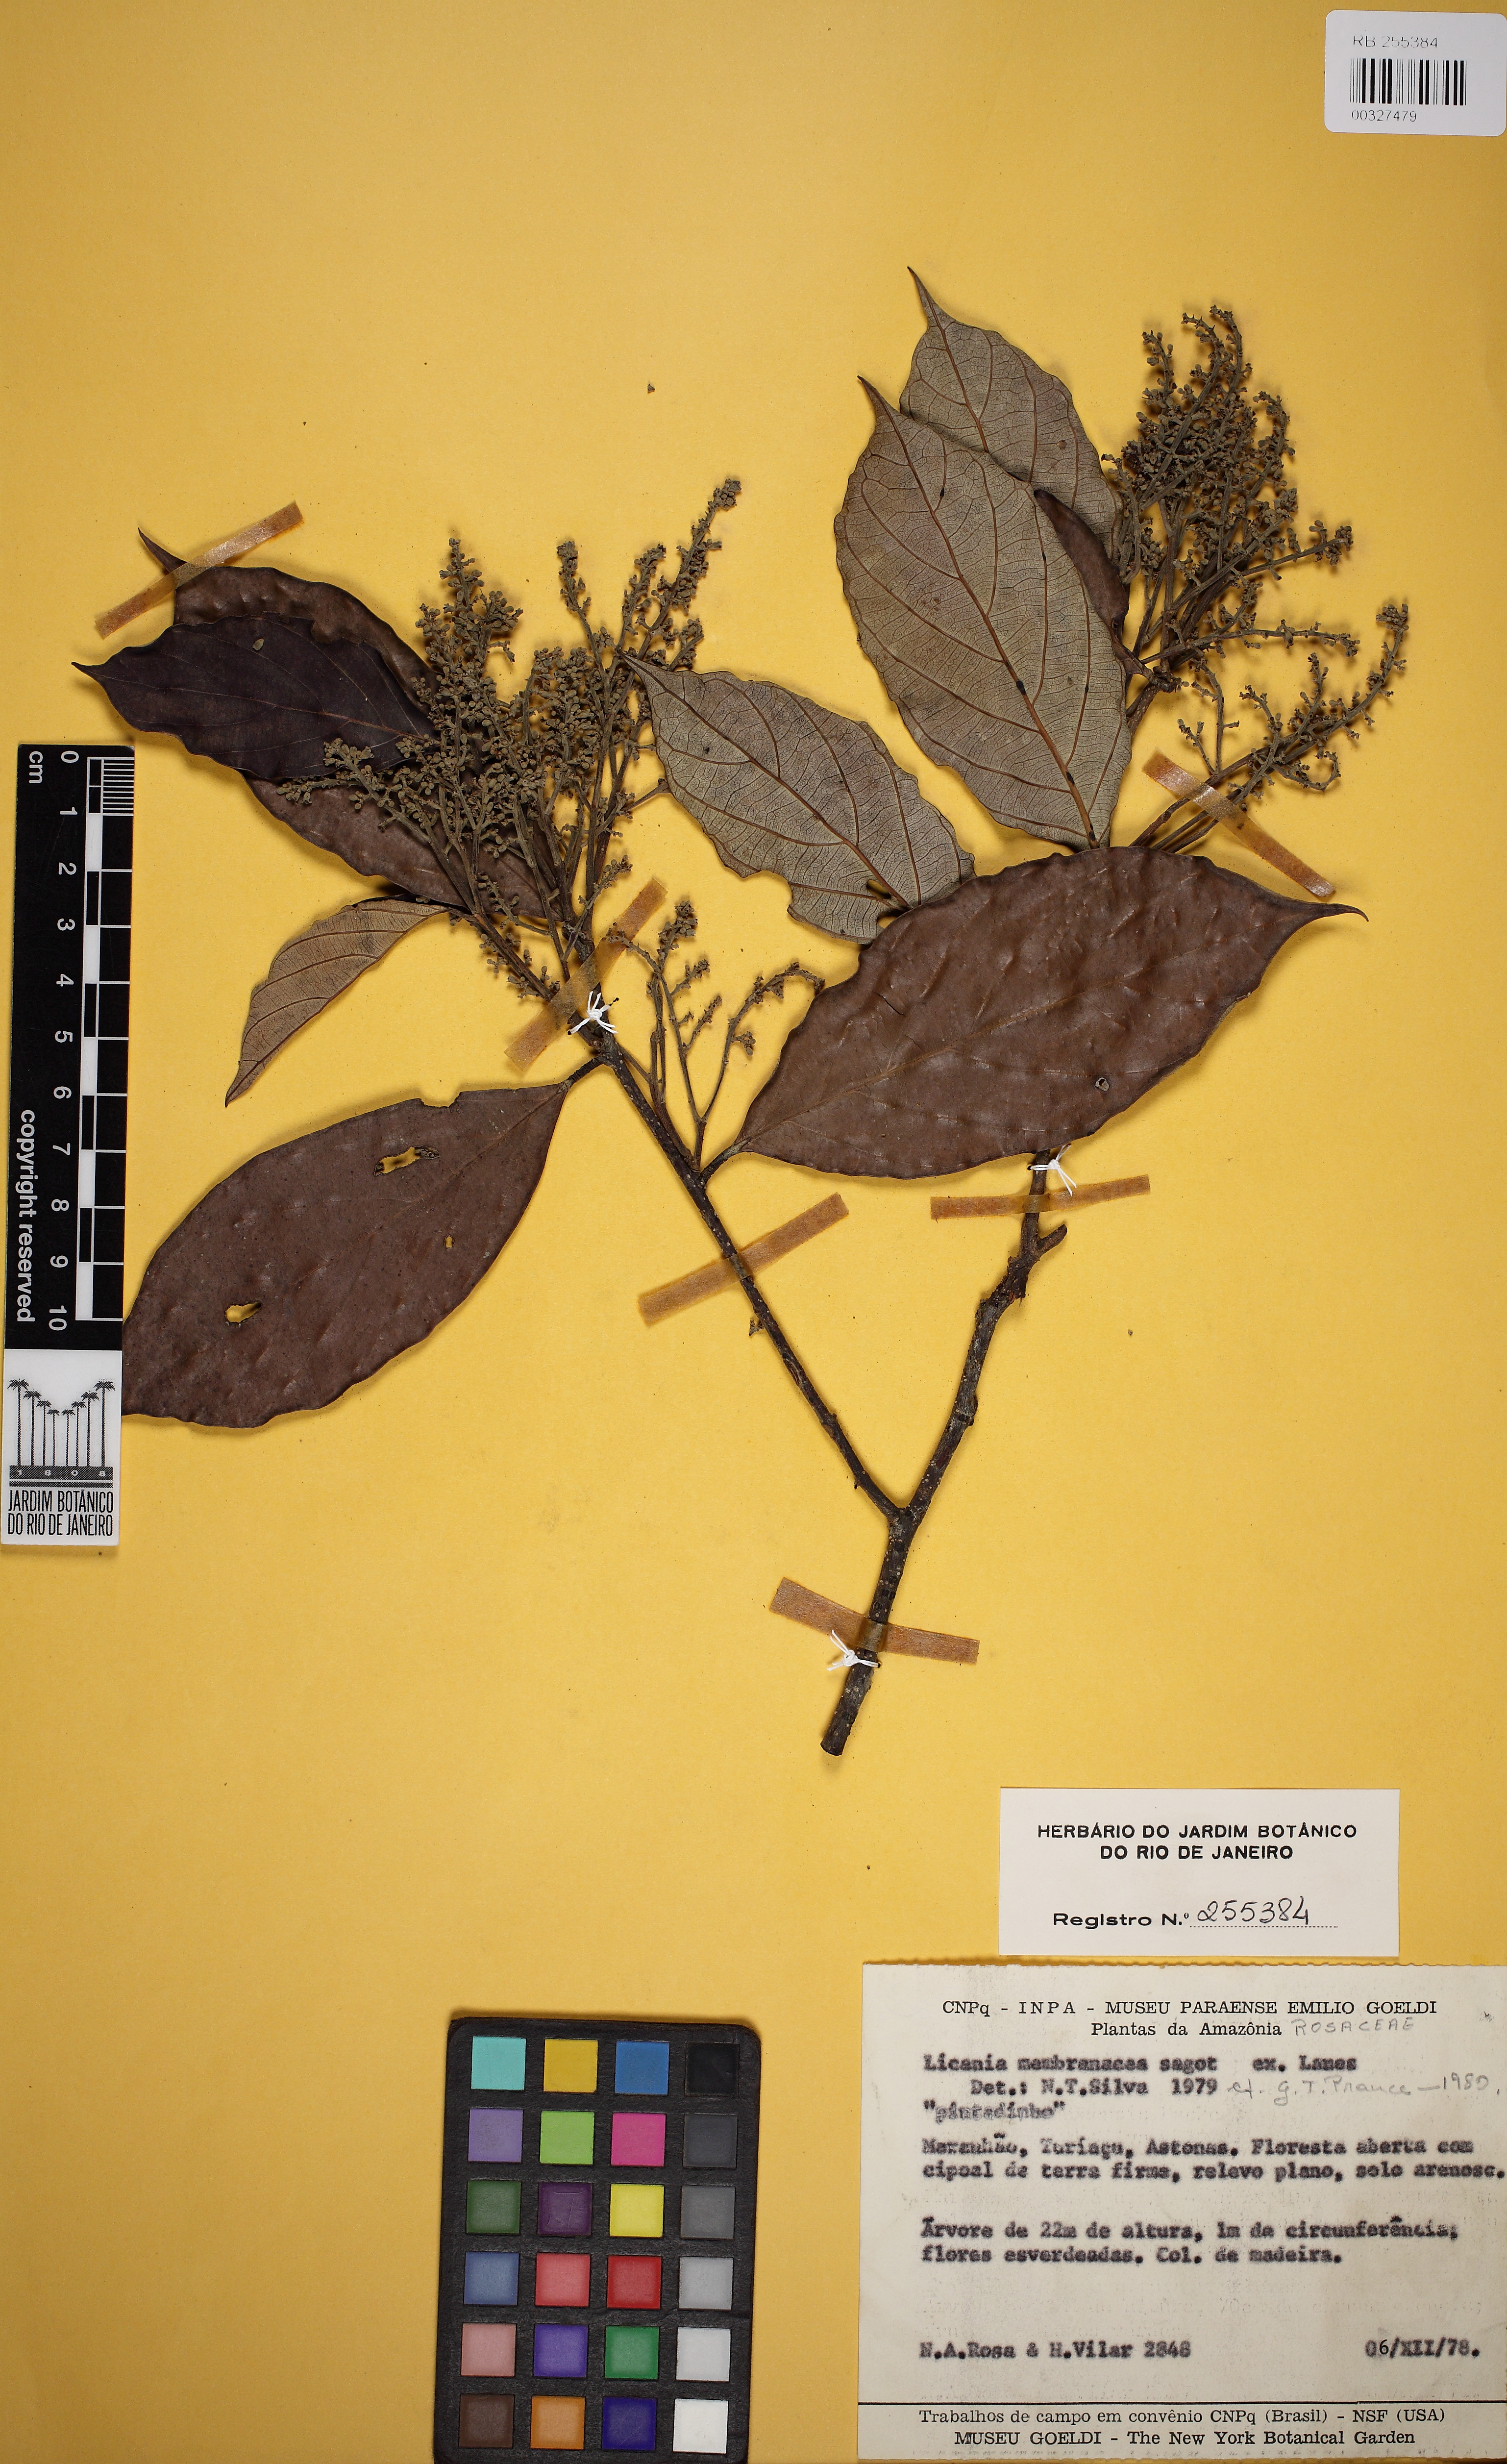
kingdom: Plantae
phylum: Tracheophyta
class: Magnoliopsida
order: Malpighiales
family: Chrysobalanaceae
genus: Licania
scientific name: Licania membranacea
